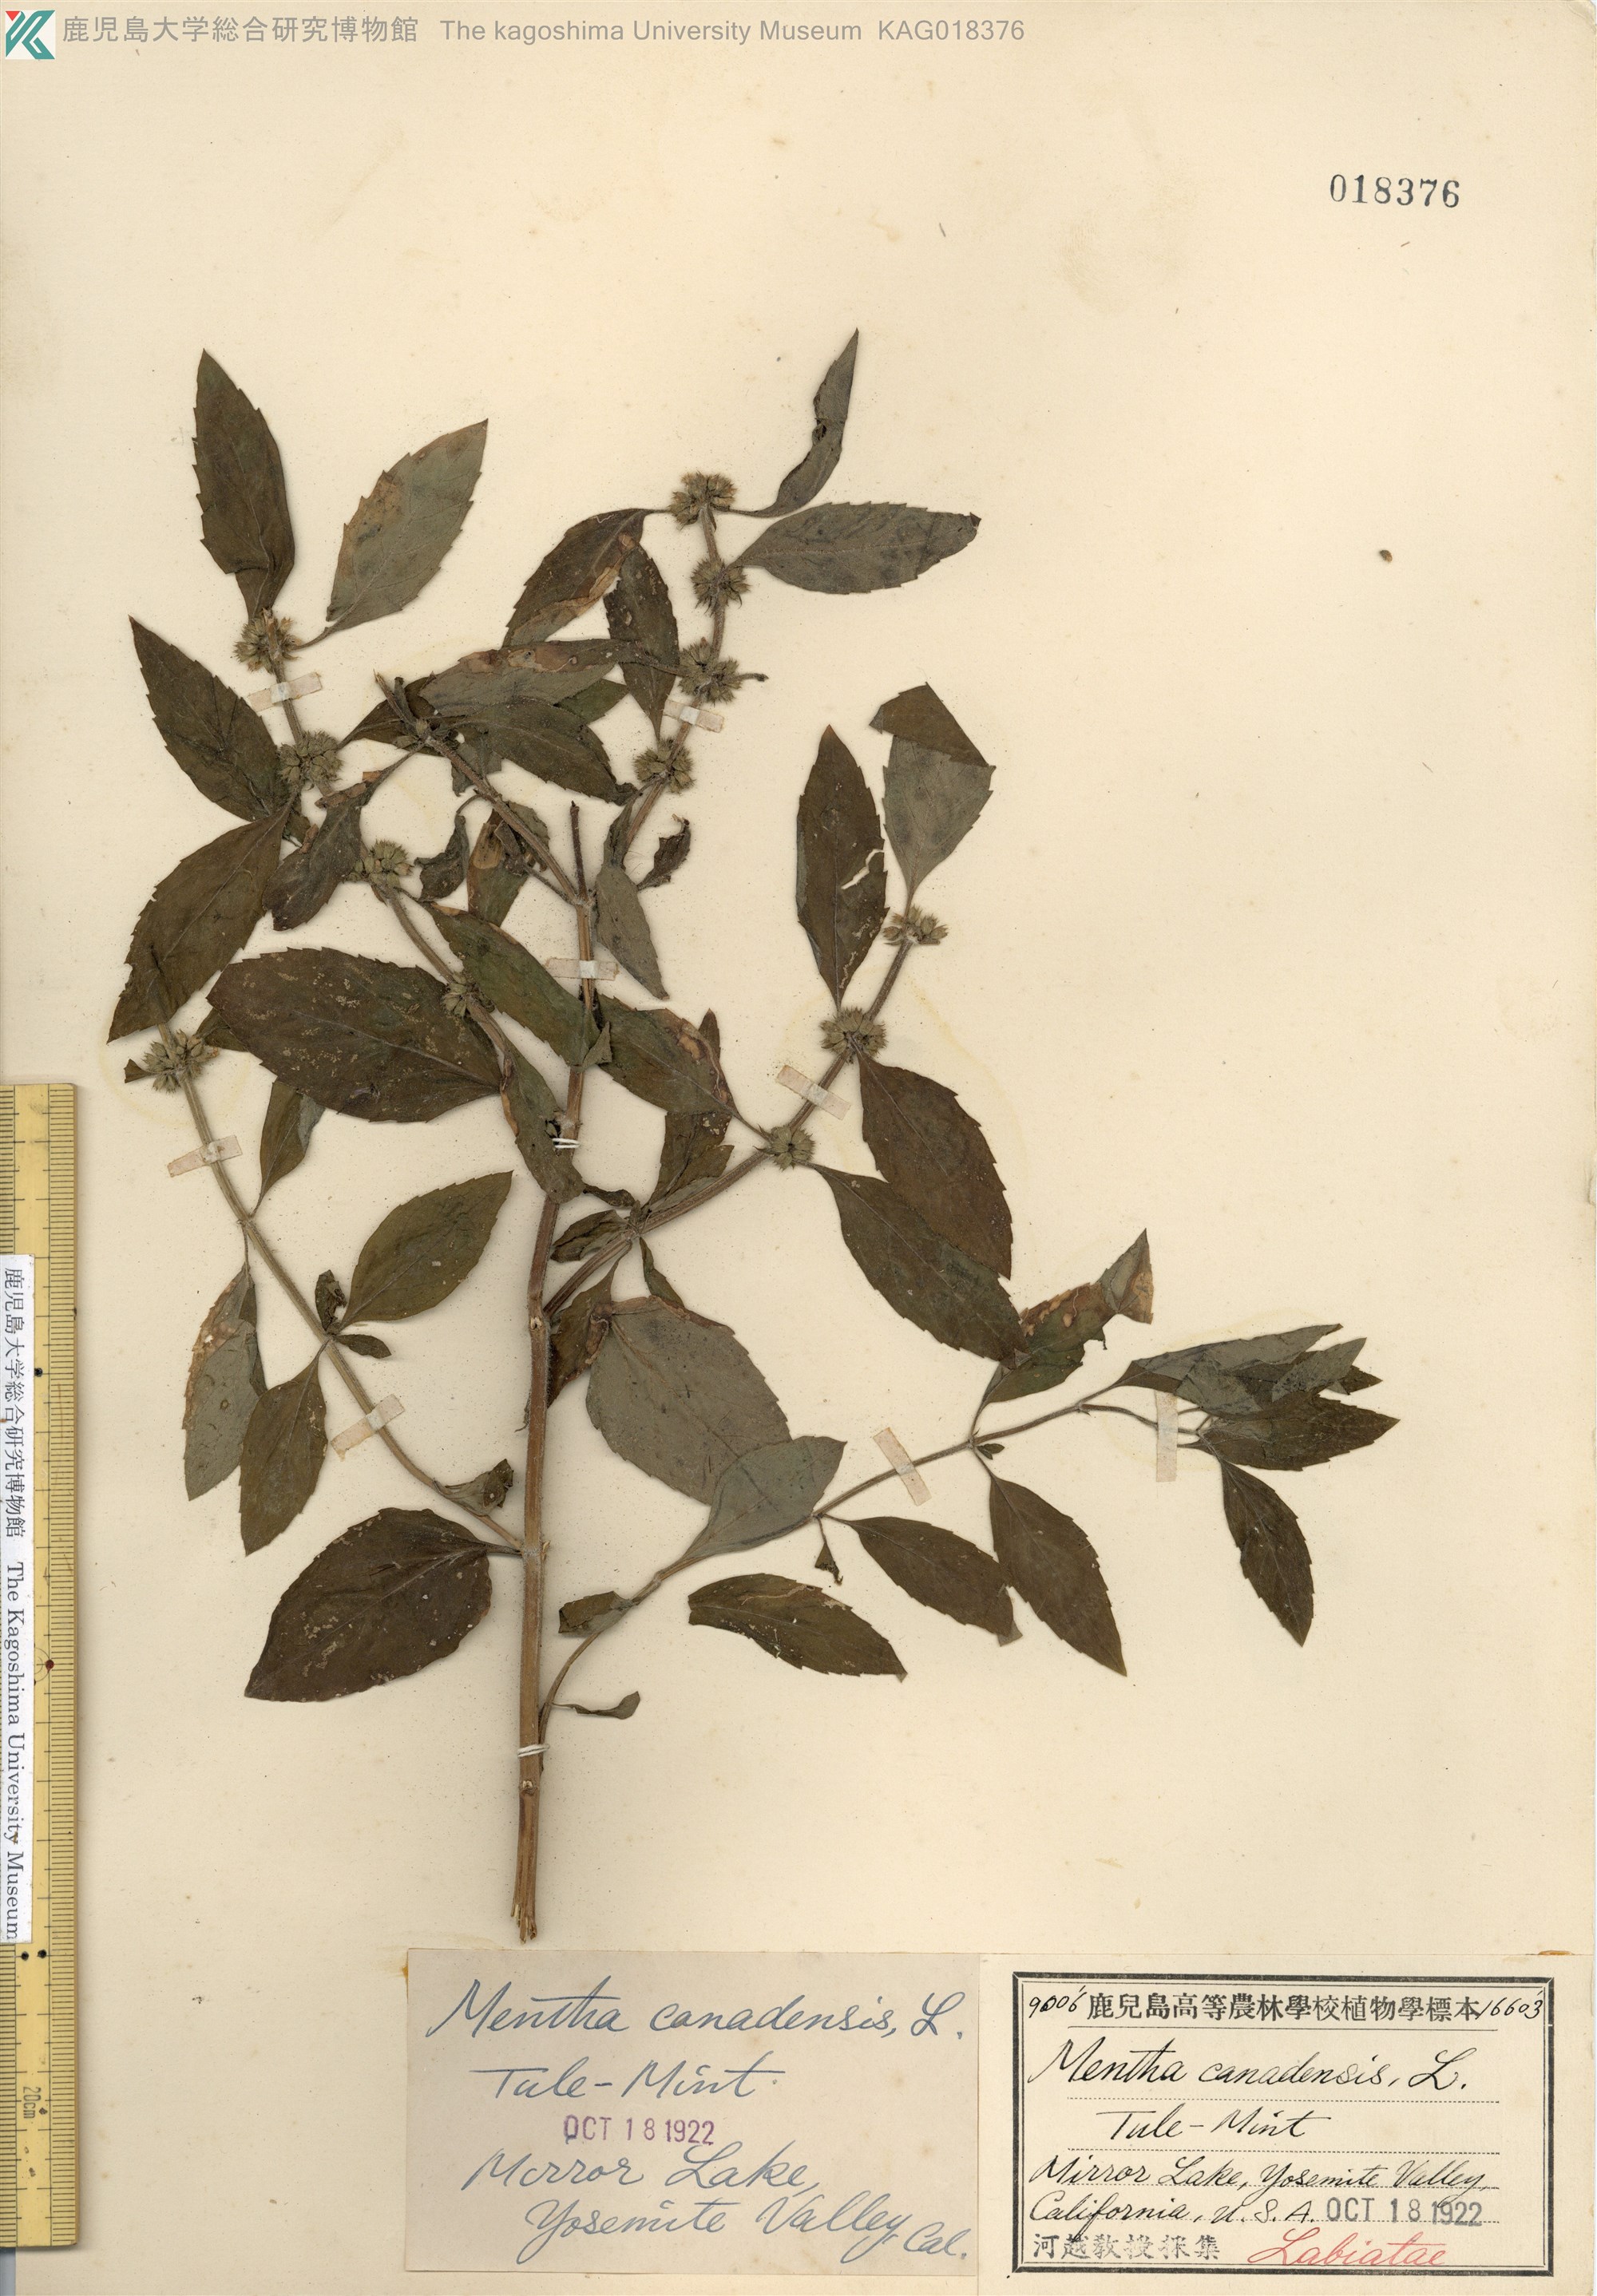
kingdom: Plantae
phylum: Tracheophyta
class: Magnoliopsida
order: Lamiales
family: Lamiaceae
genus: Mentha
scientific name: Mentha canadensis
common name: American corn mint
